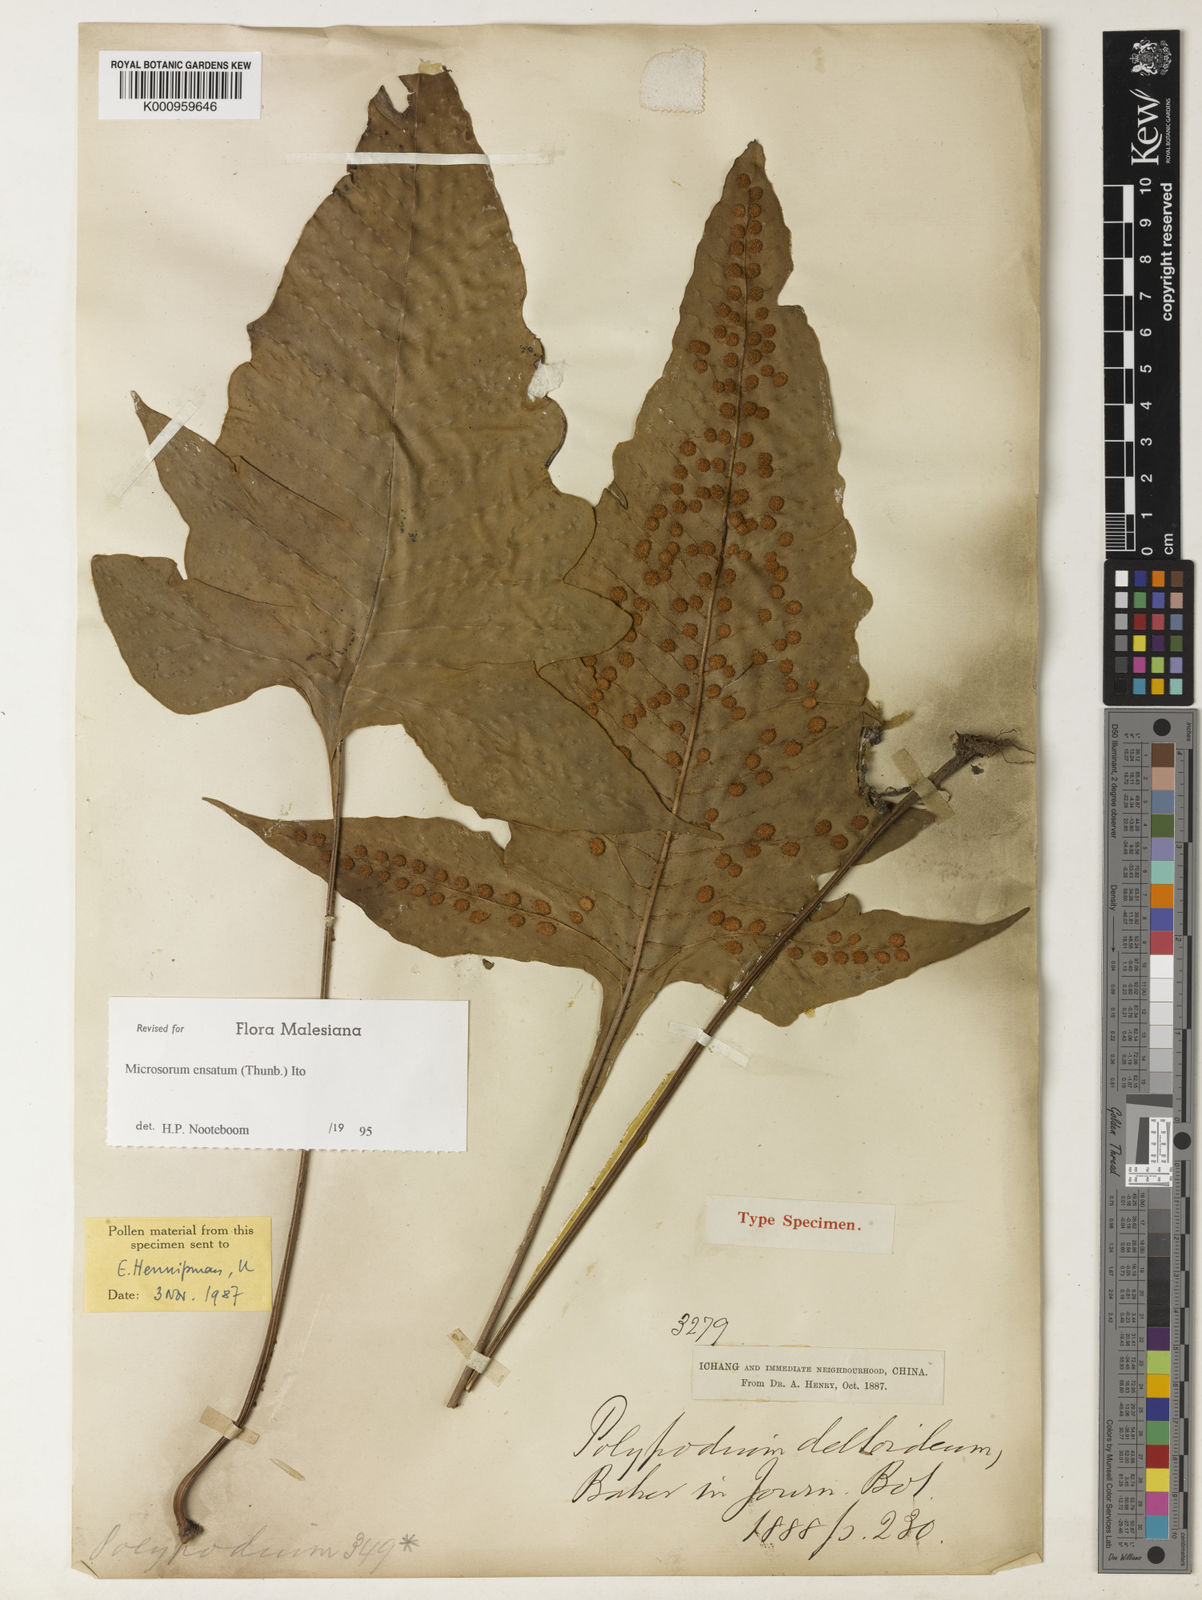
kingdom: Plantae
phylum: Tracheophyta
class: Polypodiopsida
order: Polypodiales
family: Polypodiaceae
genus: Lepisorus
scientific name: Lepisorus
